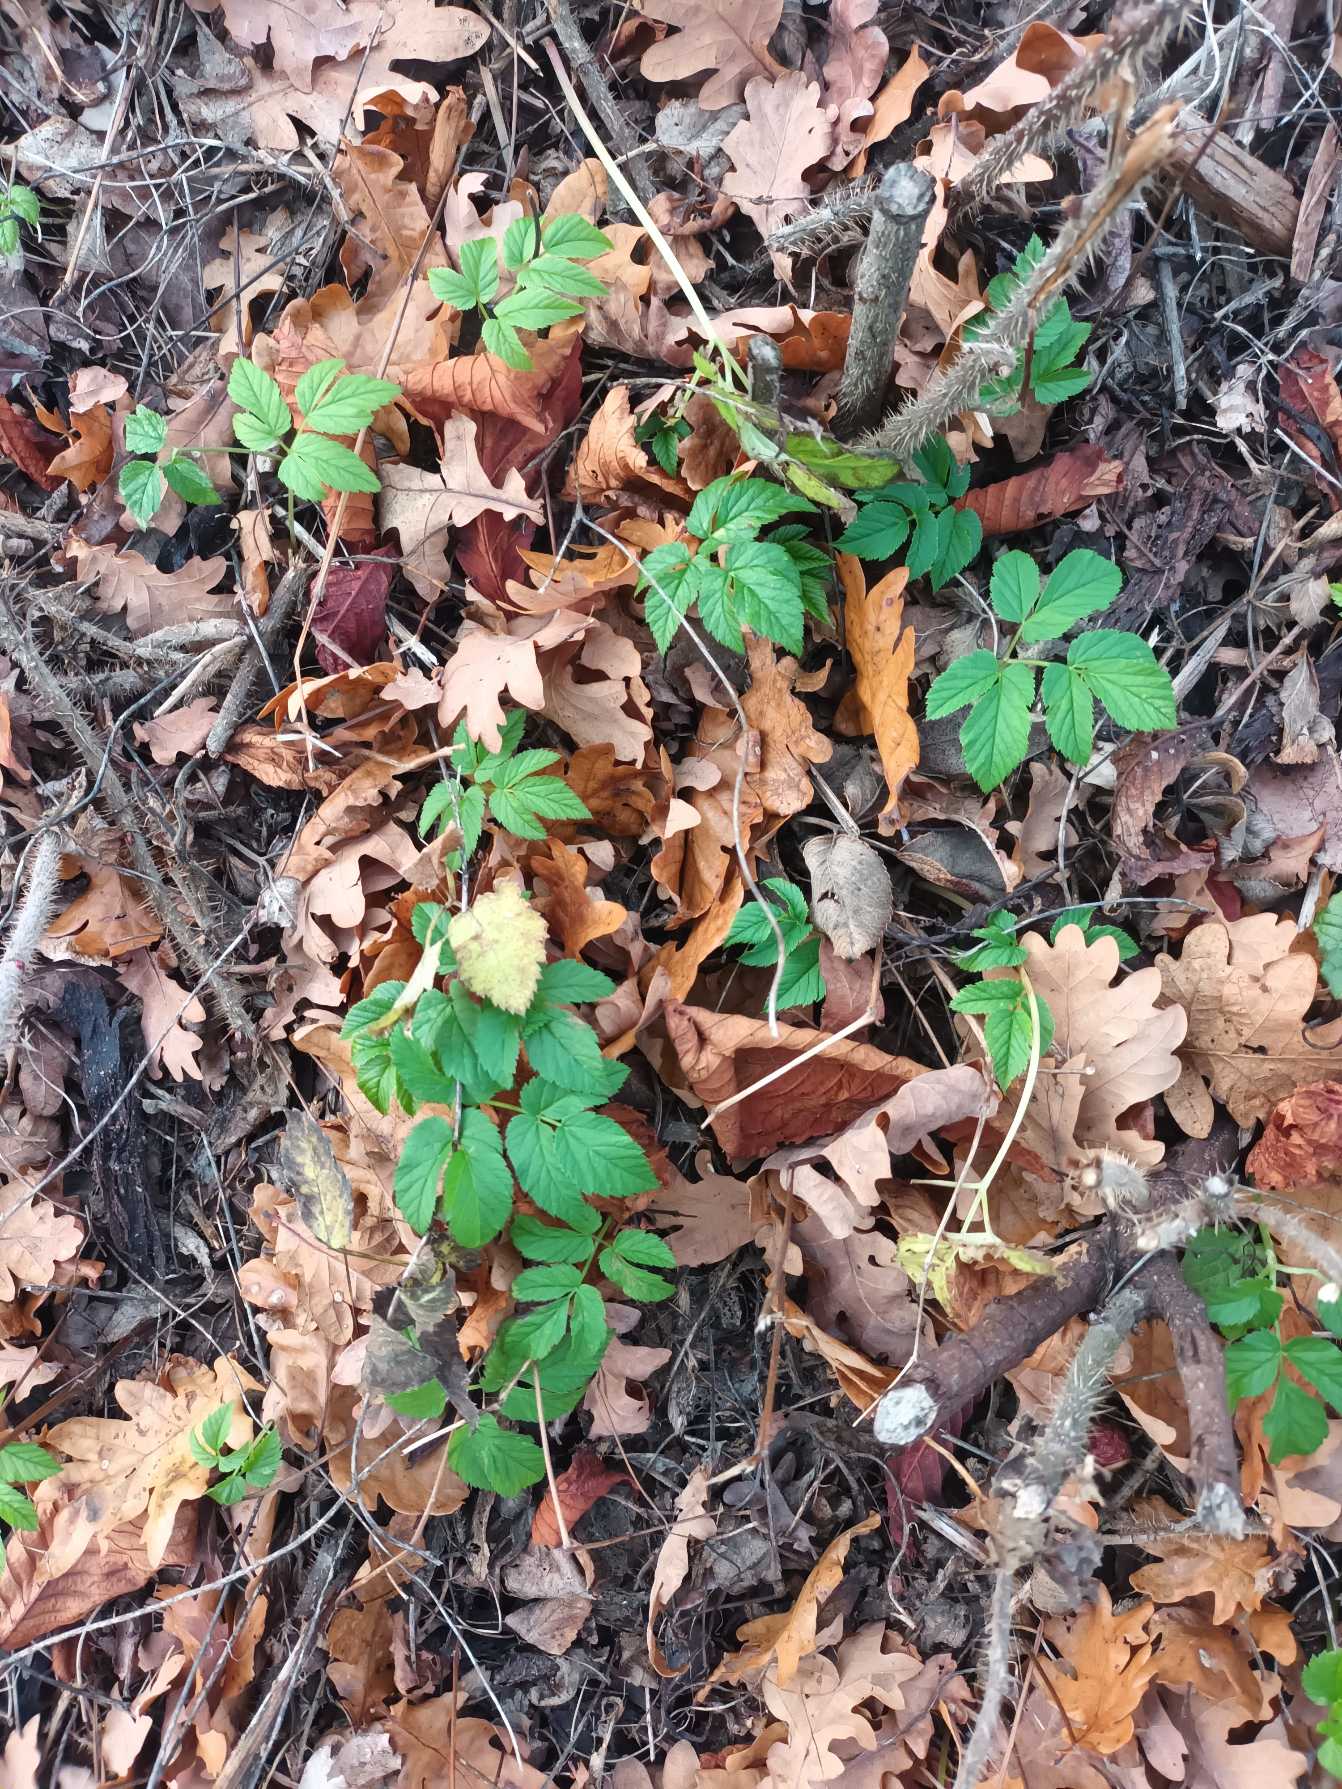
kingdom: Plantae
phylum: Tracheophyta
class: Magnoliopsida
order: Apiales
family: Apiaceae
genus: Aegopodium
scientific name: Aegopodium podagraria
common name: Skvalderkål
